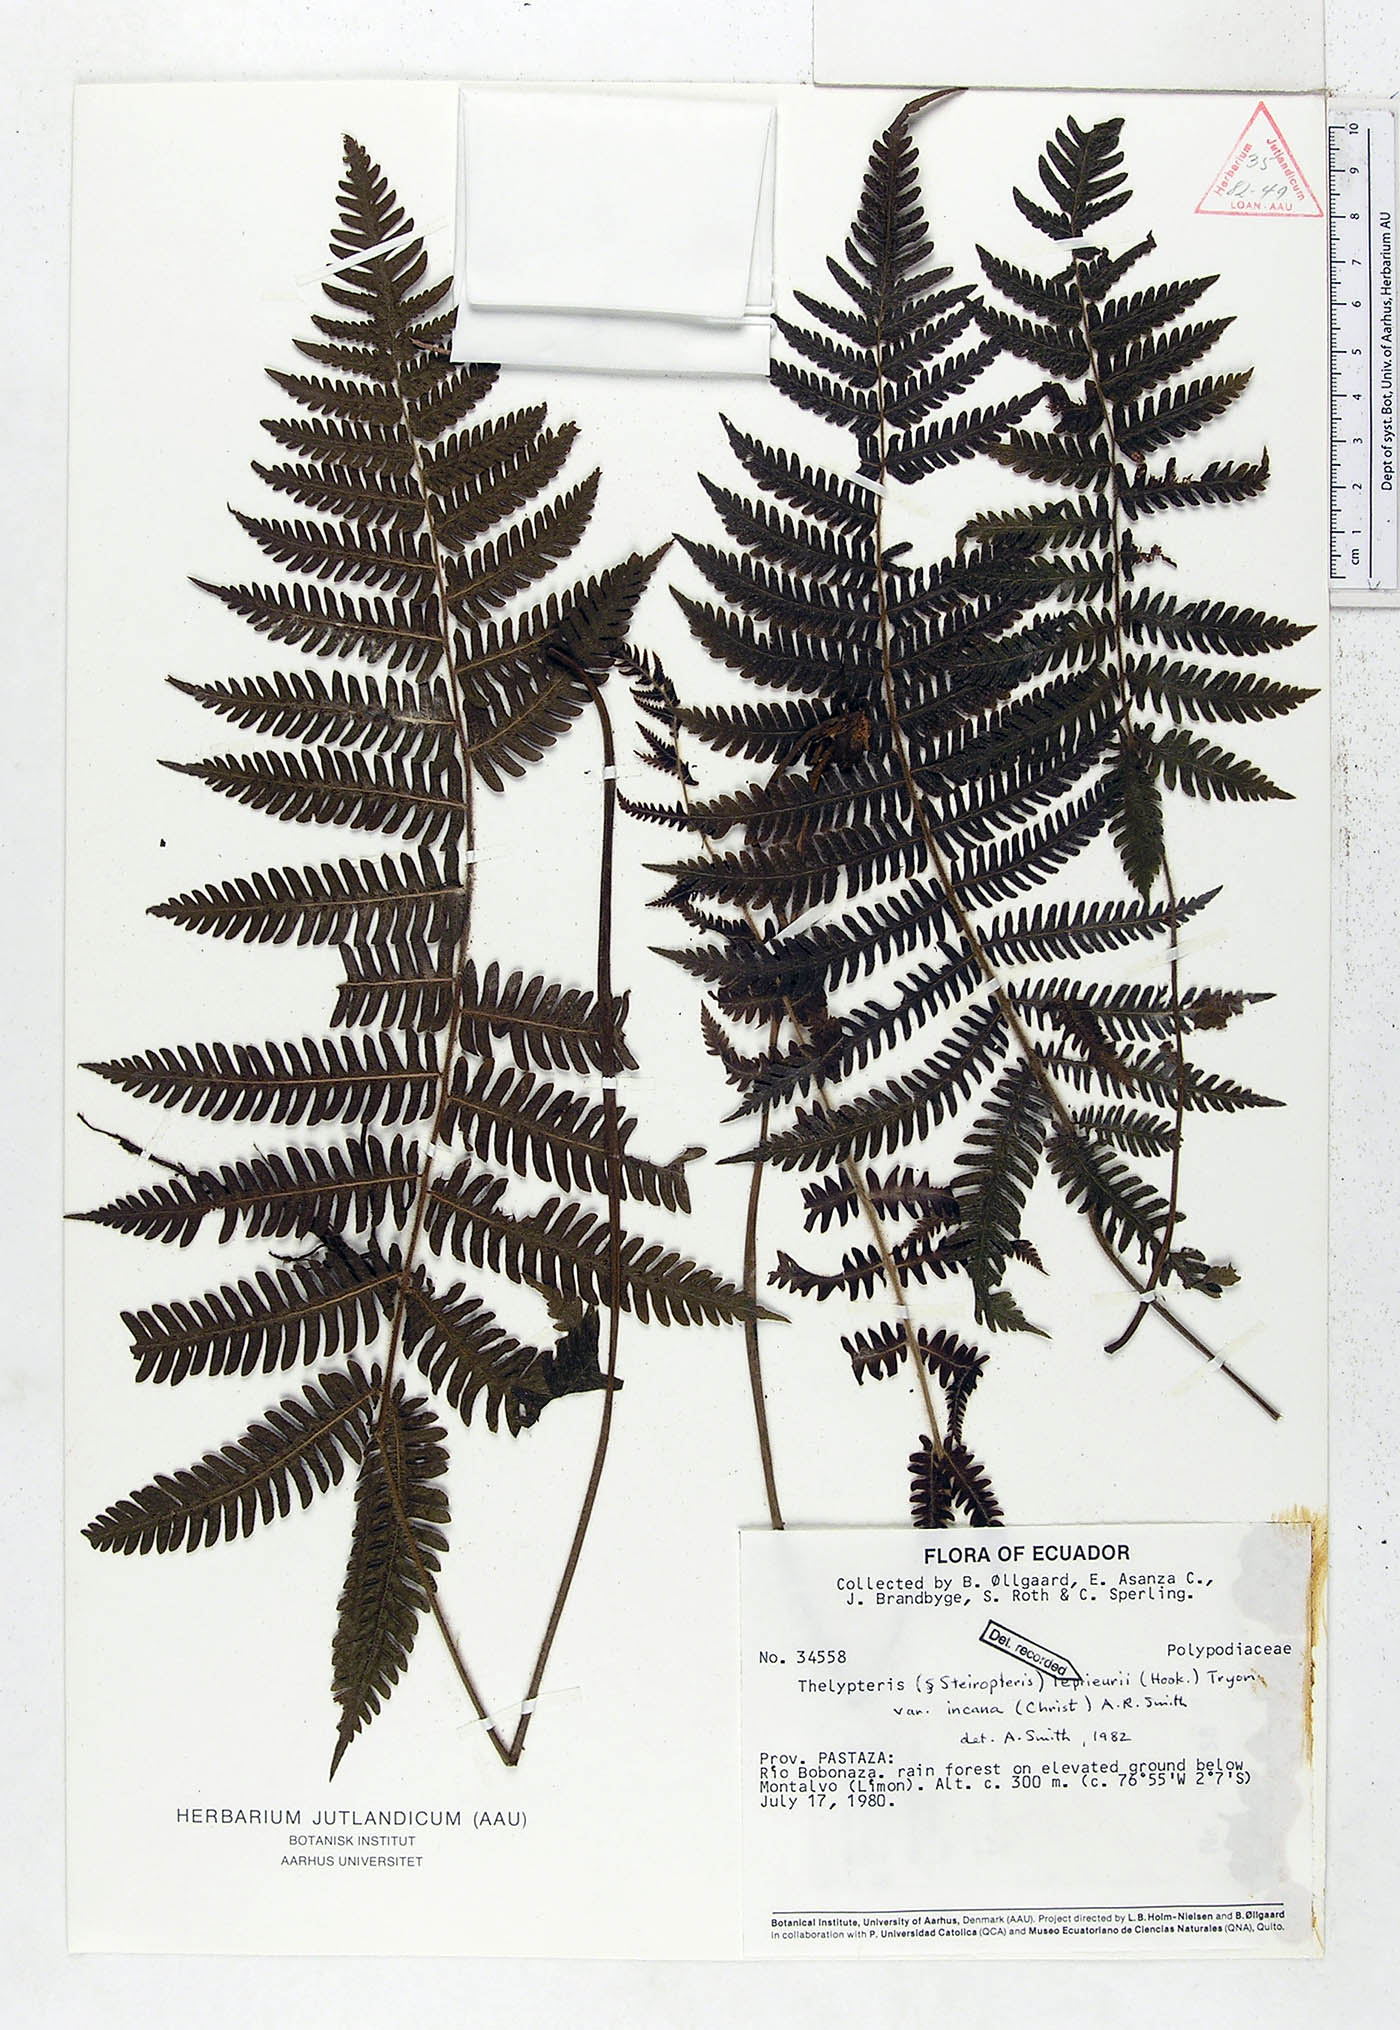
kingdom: Plantae
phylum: Tracheophyta
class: Polypodiopsida
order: Polypodiales
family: Thelypteridaceae
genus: Steiropteris
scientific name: Steiropteris leprieurii
